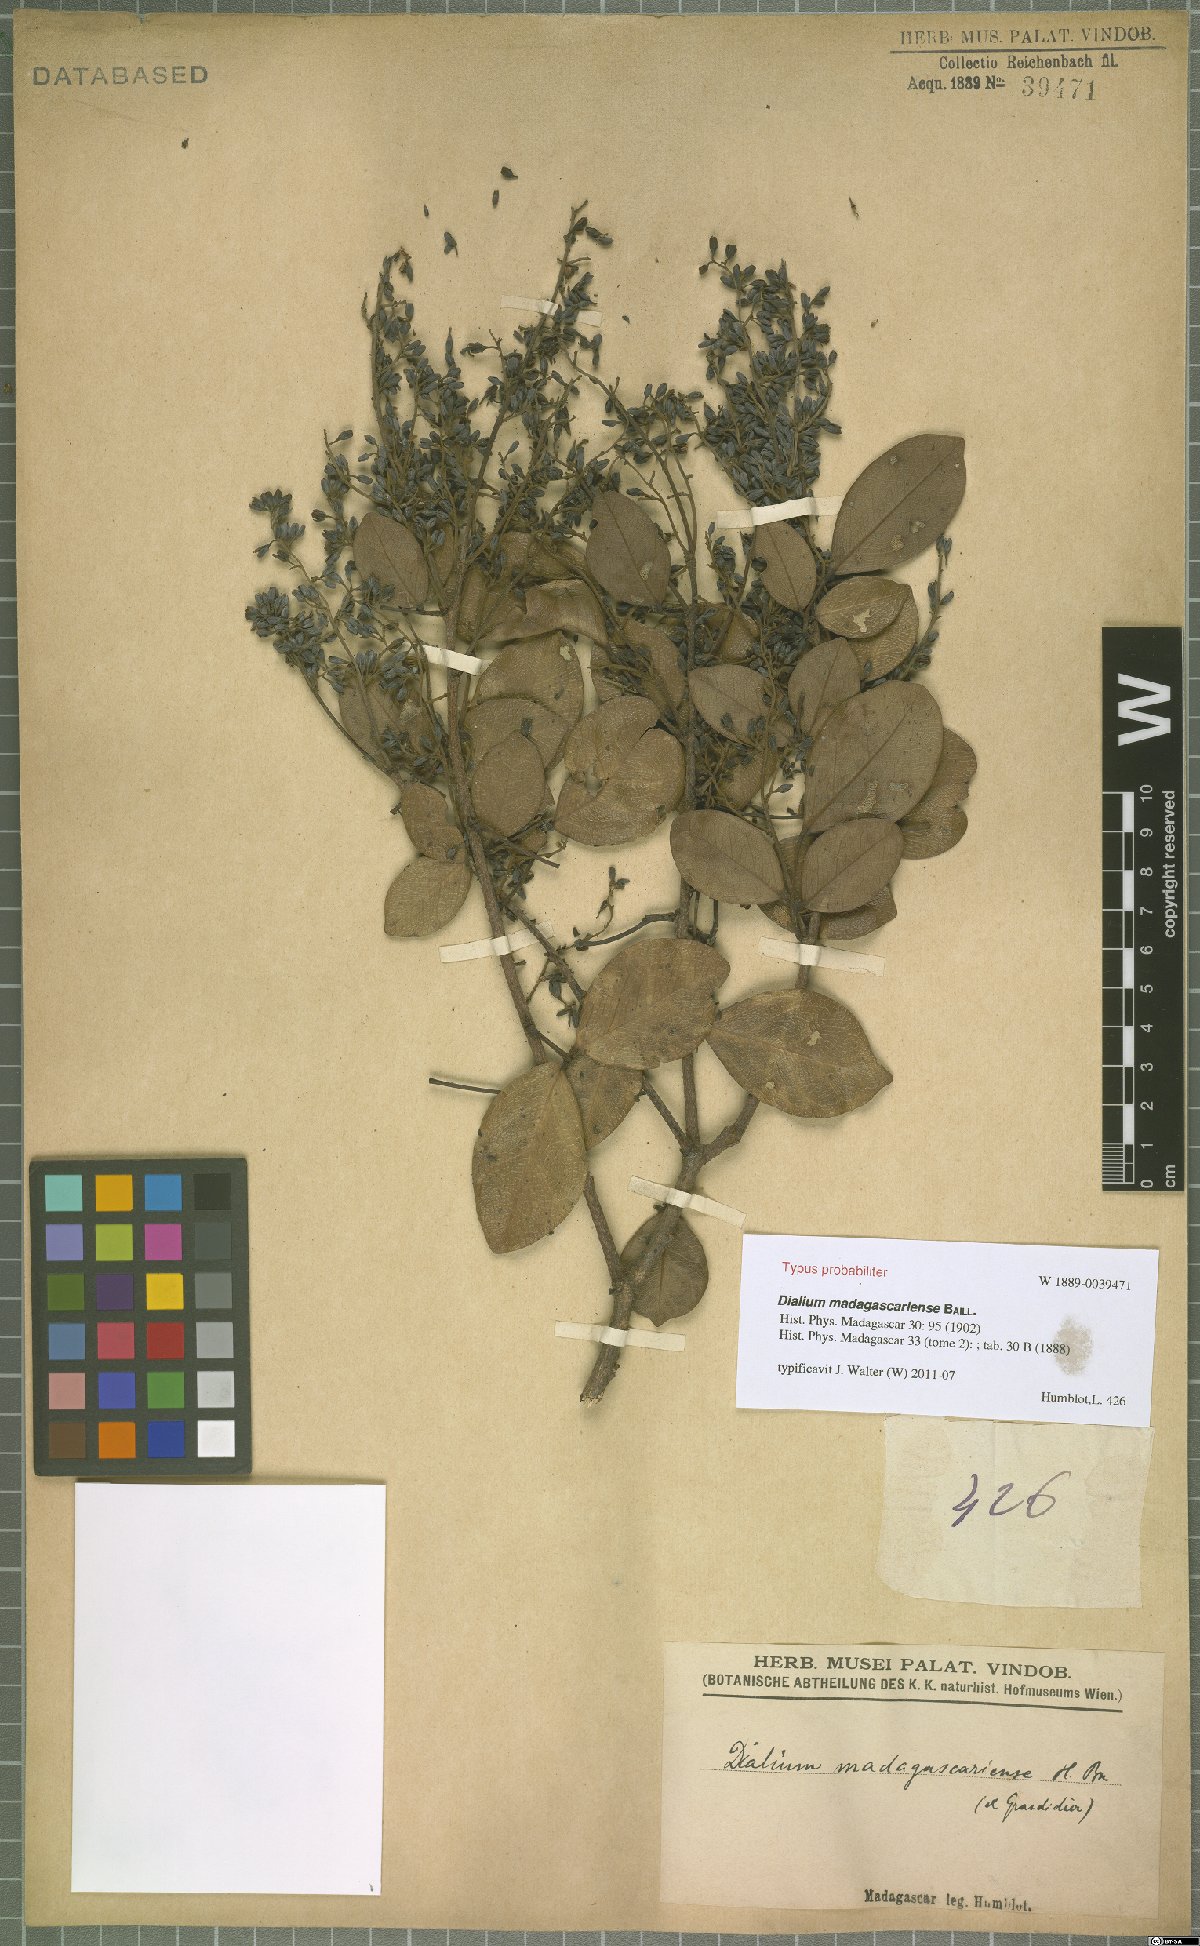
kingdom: Plantae
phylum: Tracheophyta
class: Magnoliopsida
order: Fabales
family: Fabaceae
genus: Dialium
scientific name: Dialium madagascariense
